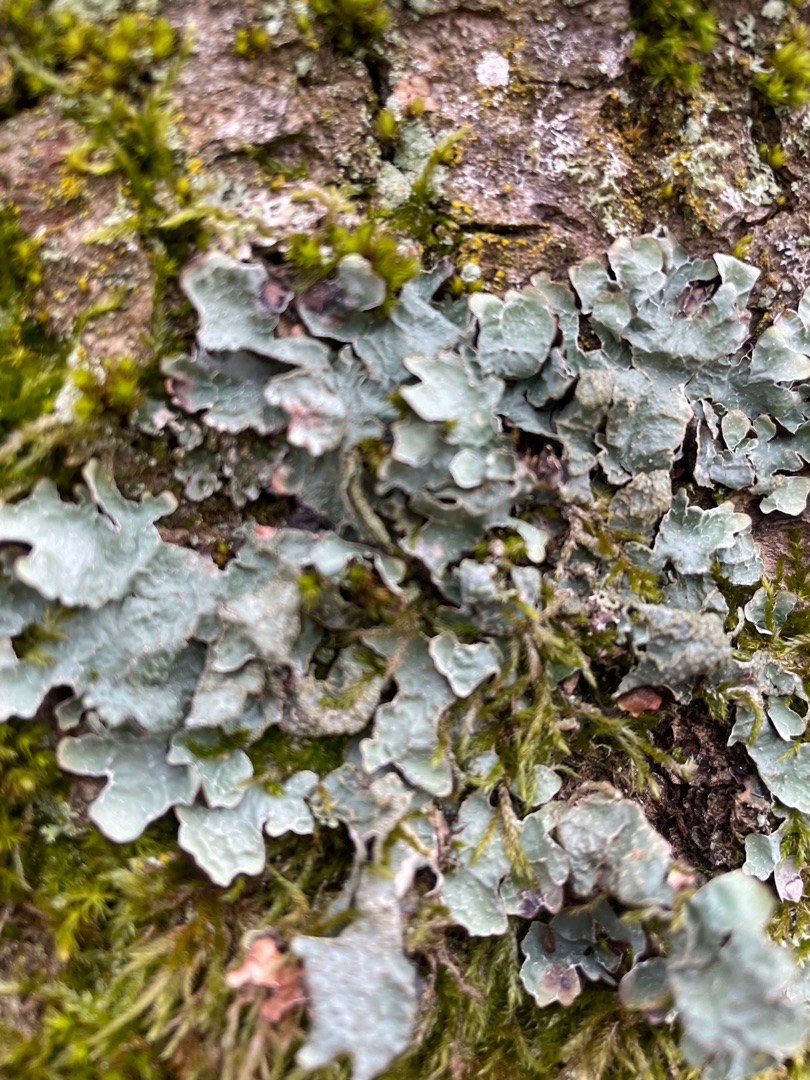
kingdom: Fungi
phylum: Ascomycota
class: Lecanoromycetes
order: Lecanorales
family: Parmeliaceae
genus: Parmelia
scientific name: Parmelia sulcata
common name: Rynket skållav
